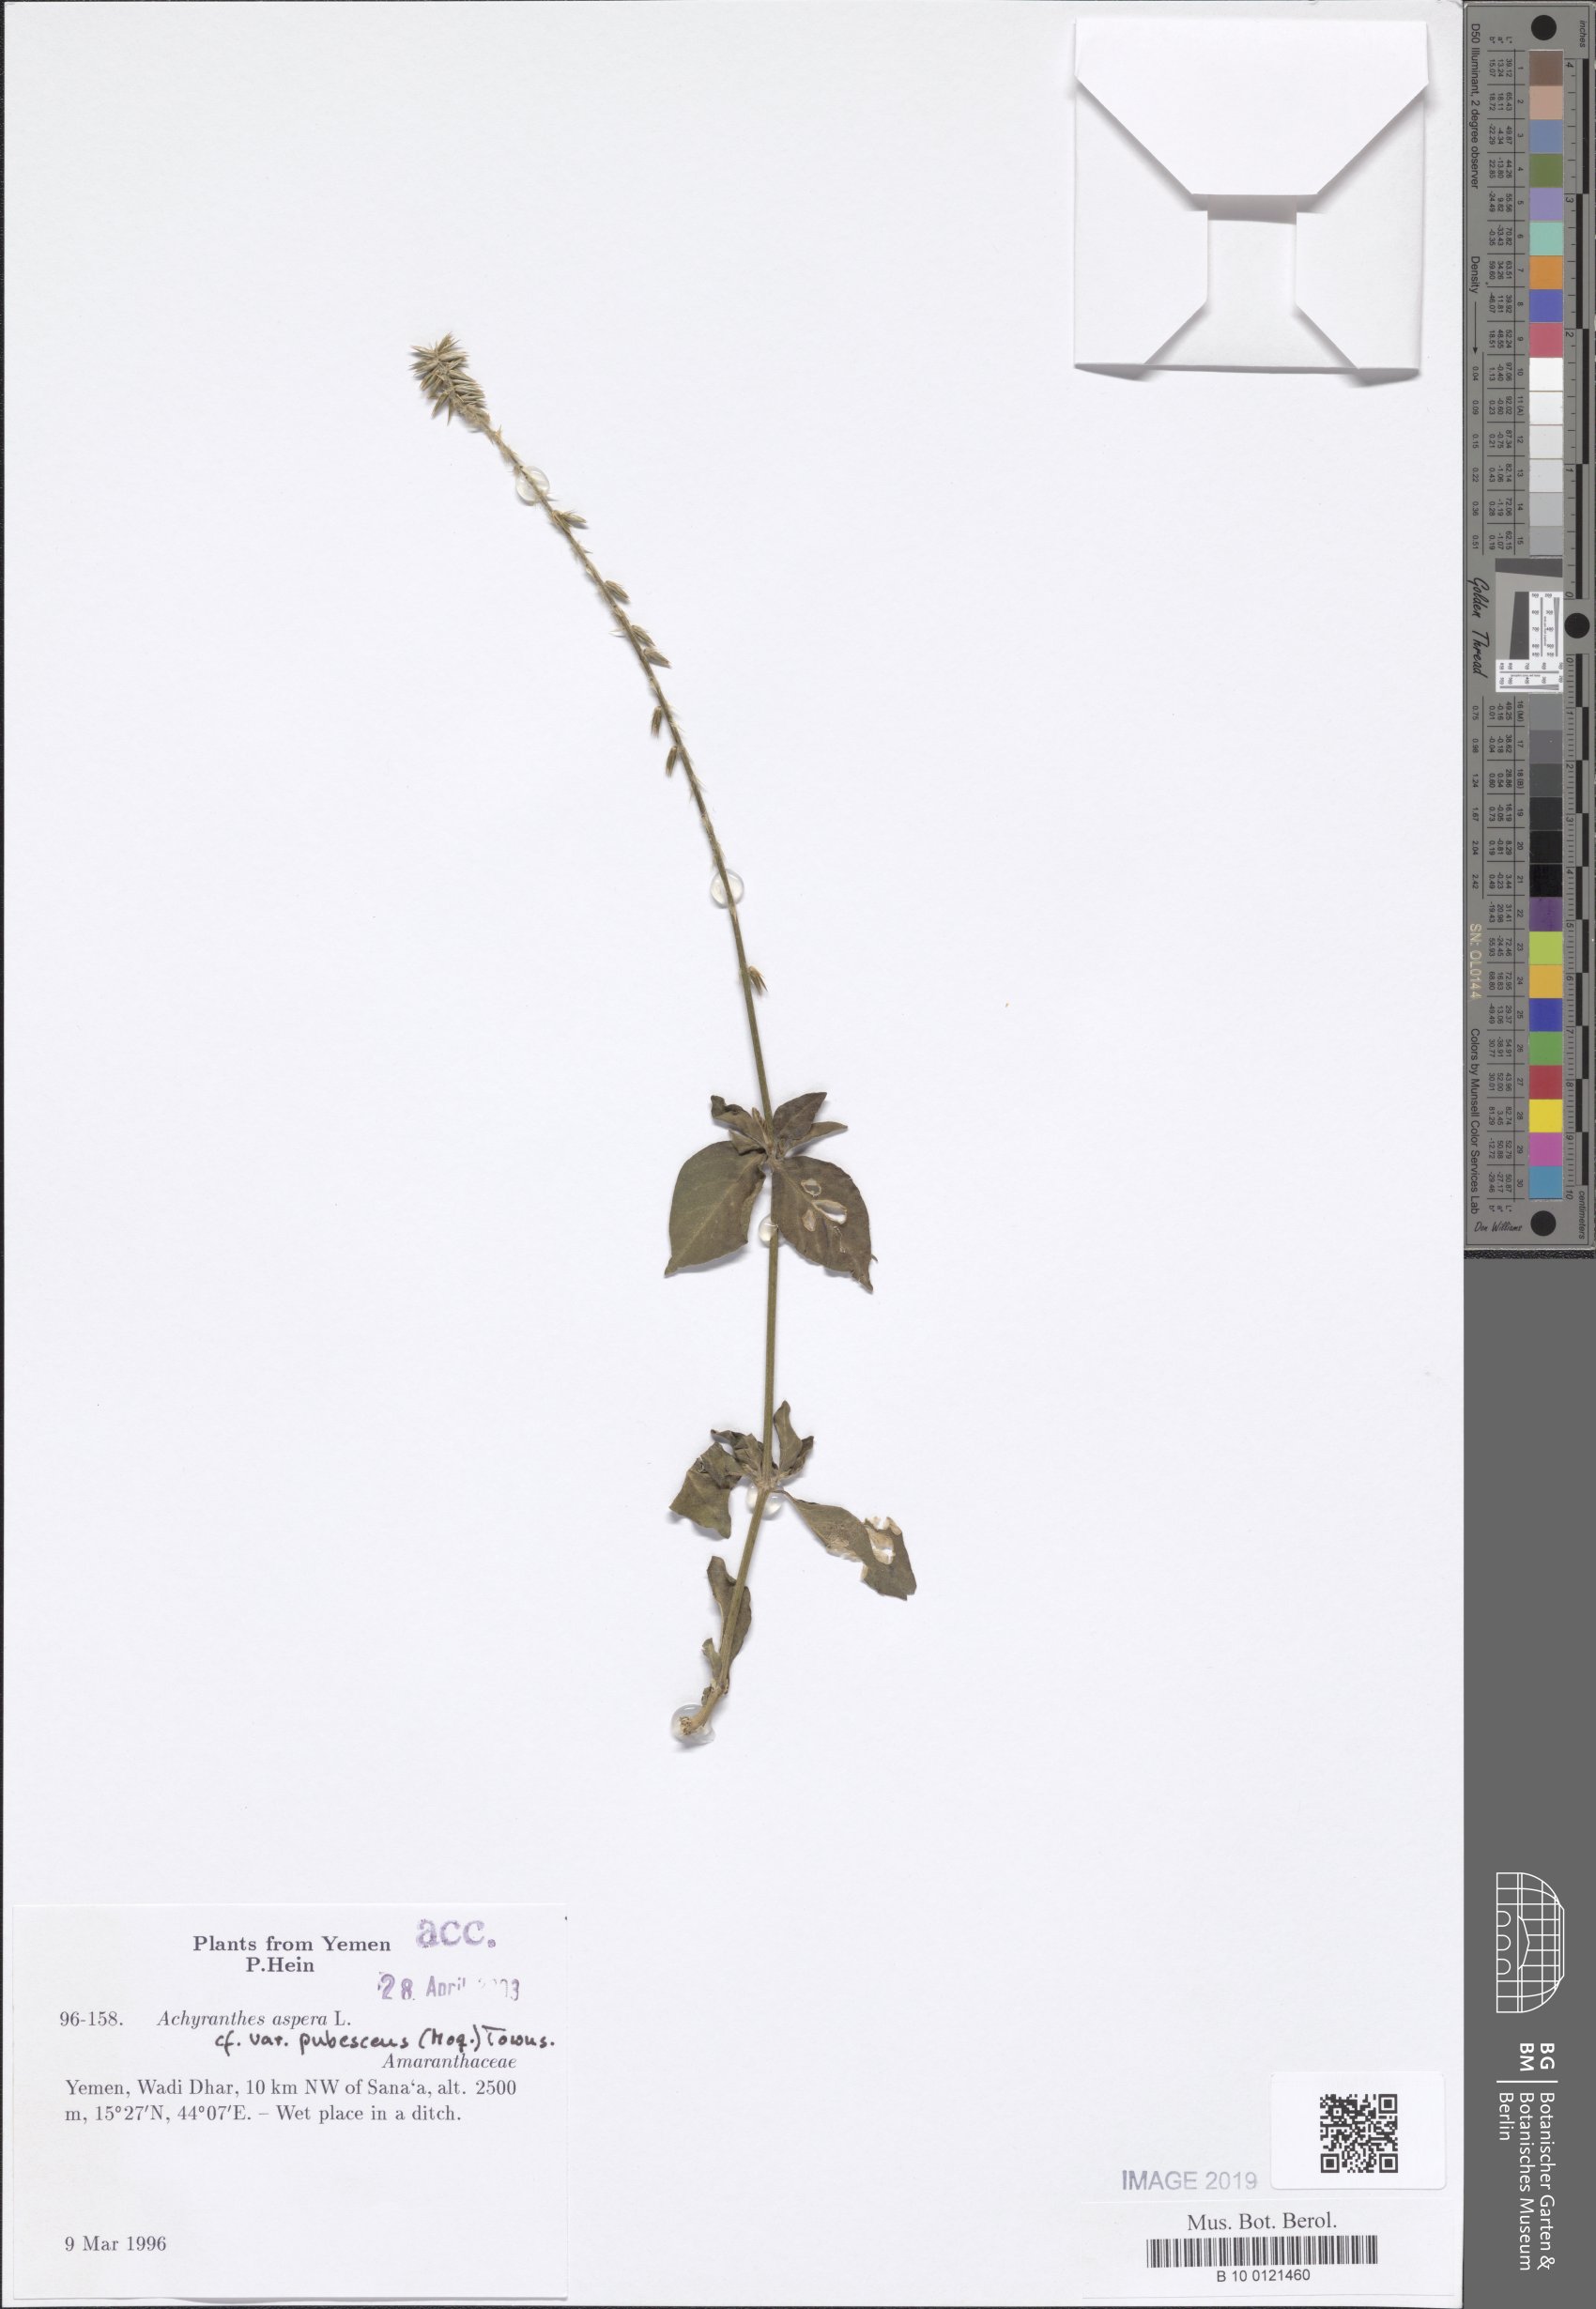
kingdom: Plantae
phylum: Tracheophyta
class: Magnoliopsida
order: Caryophyllales
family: Amaranthaceae
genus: Achyranthes
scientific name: Achyranthes aspera
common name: Devil's horsewhip
